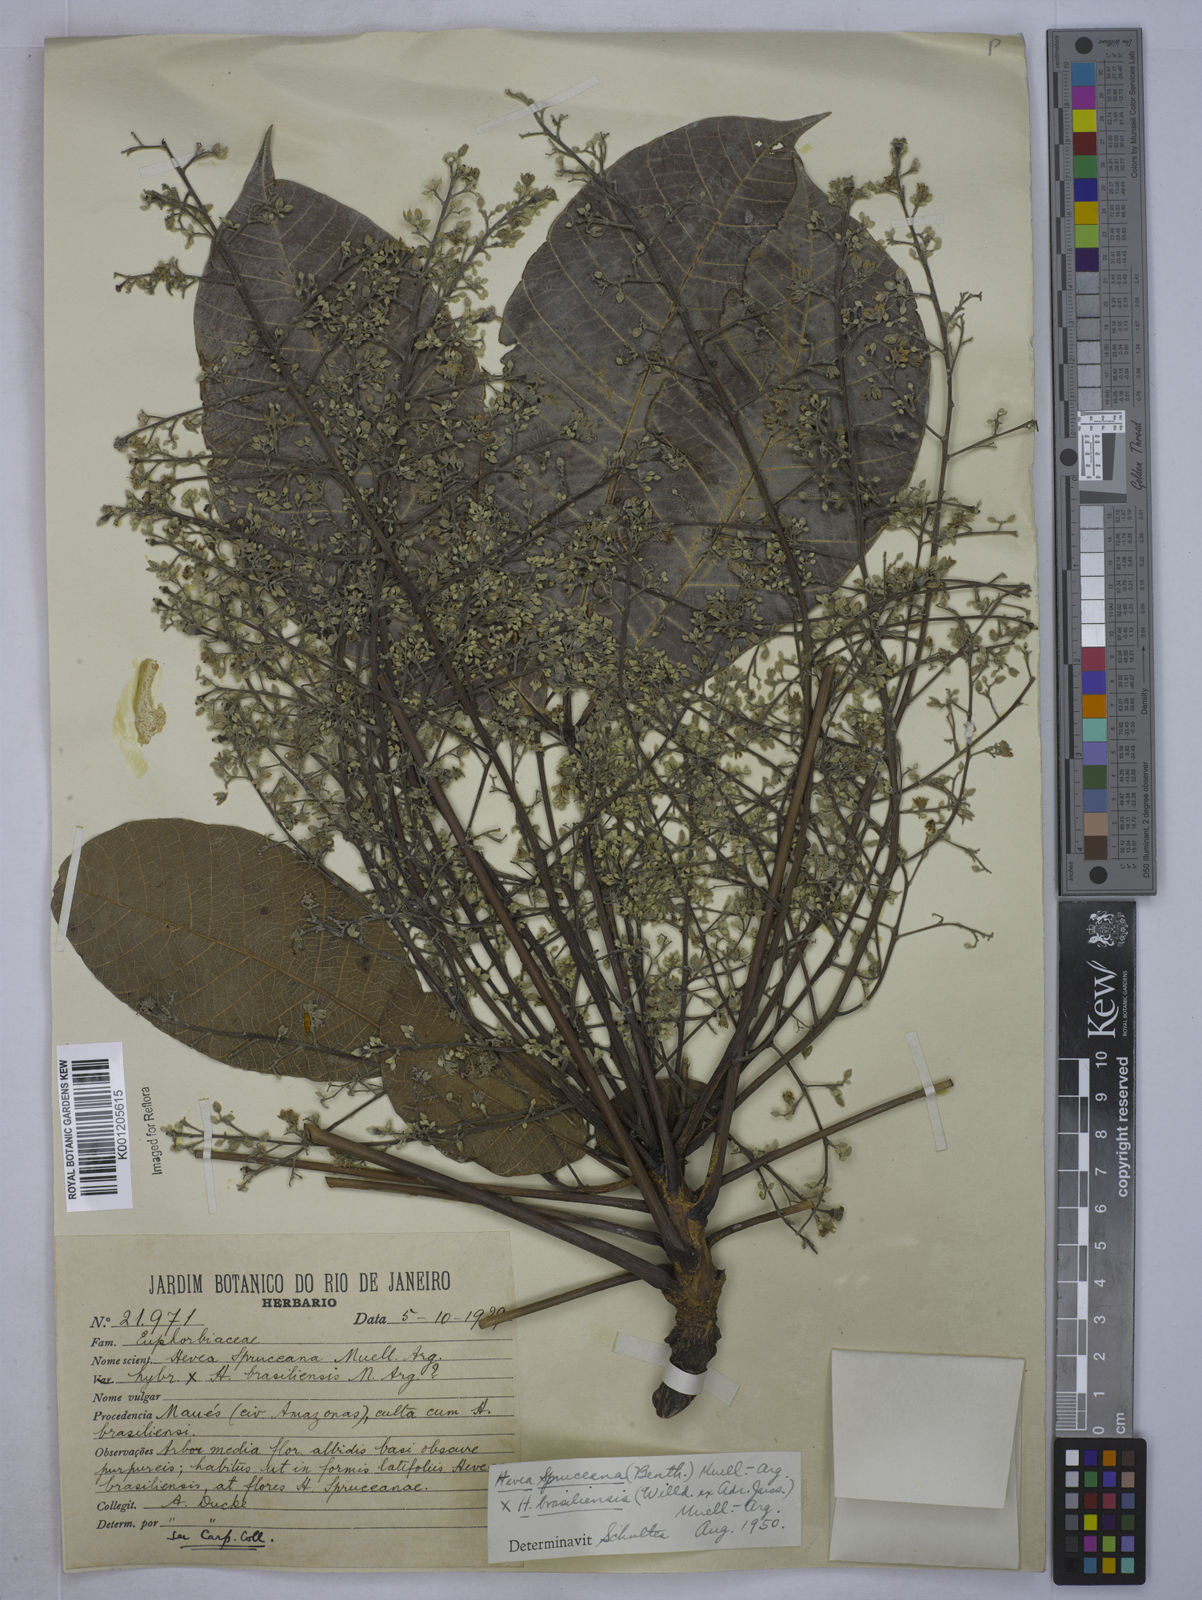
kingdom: Plantae
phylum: Tracheophyta
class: Magnoliopsida
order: Malpighiales
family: Euphorbiaceae
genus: Hevea
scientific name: Hevea
